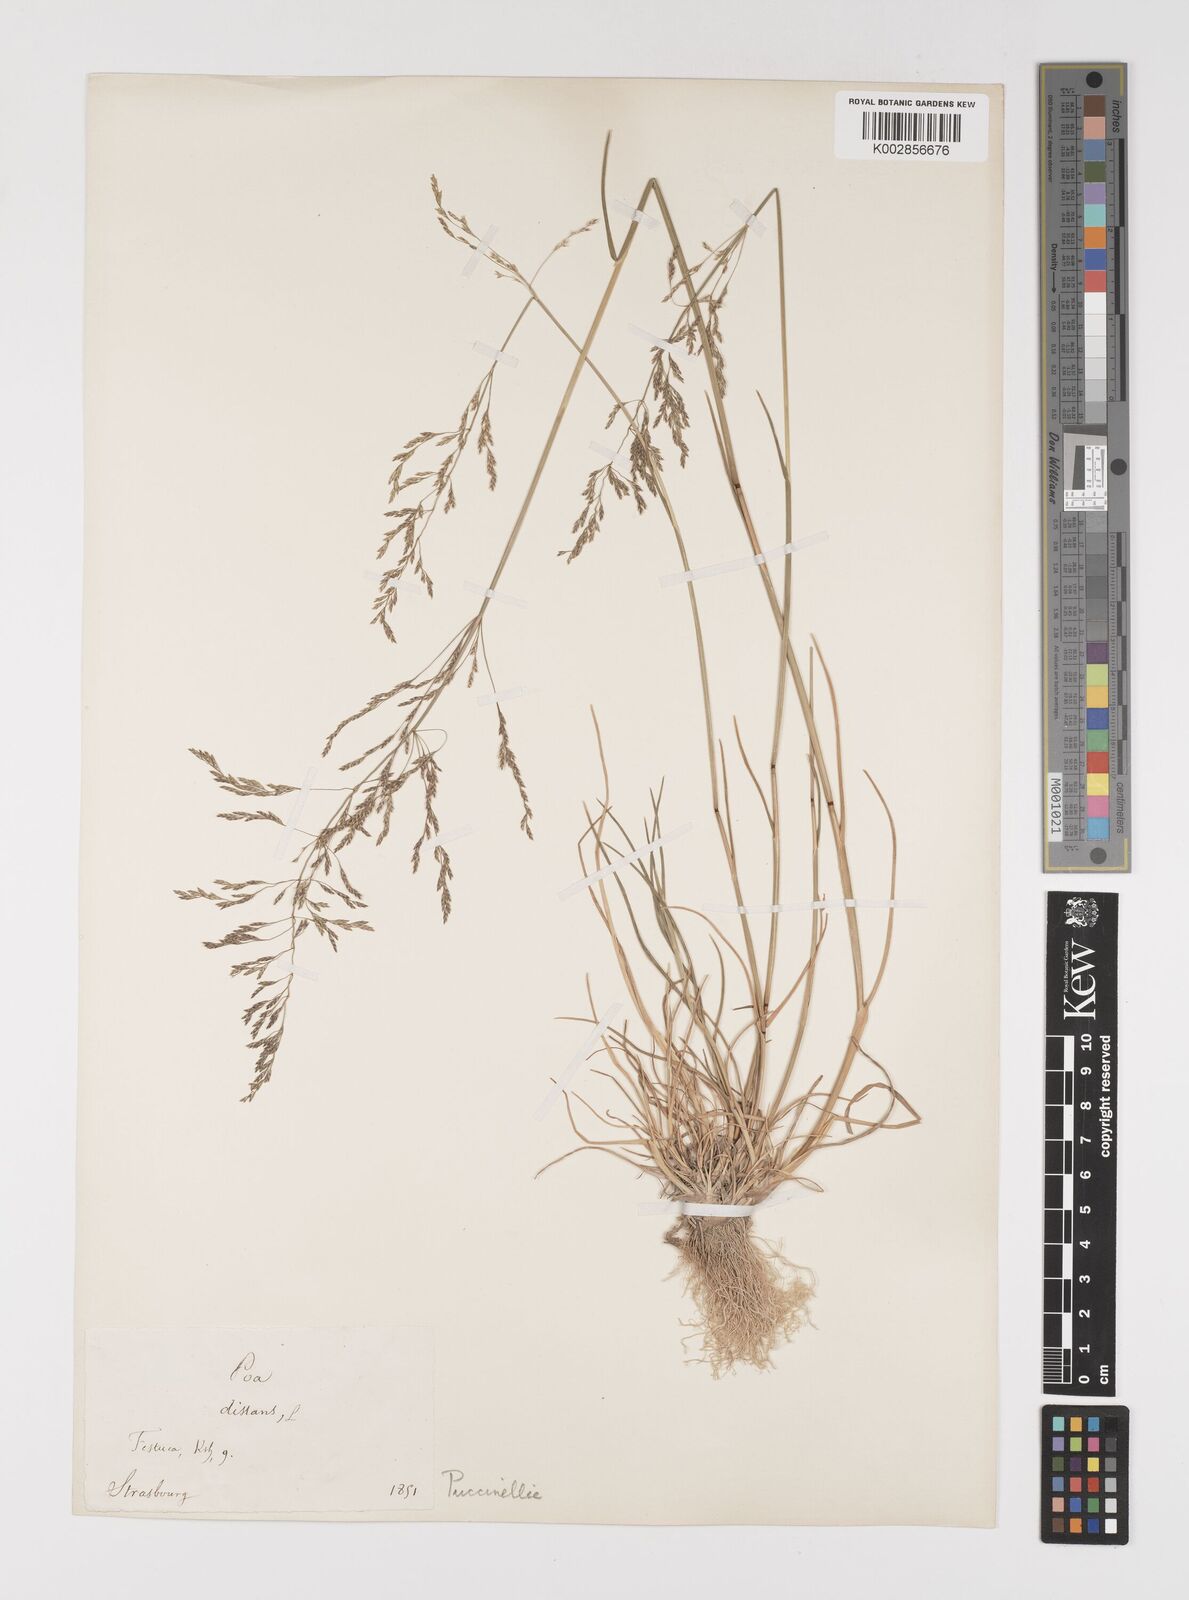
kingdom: Plantae
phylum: Tracheophyta
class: Liliopsida
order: Poales
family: Poaceae
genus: Puccinellia
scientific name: Puccinellia
